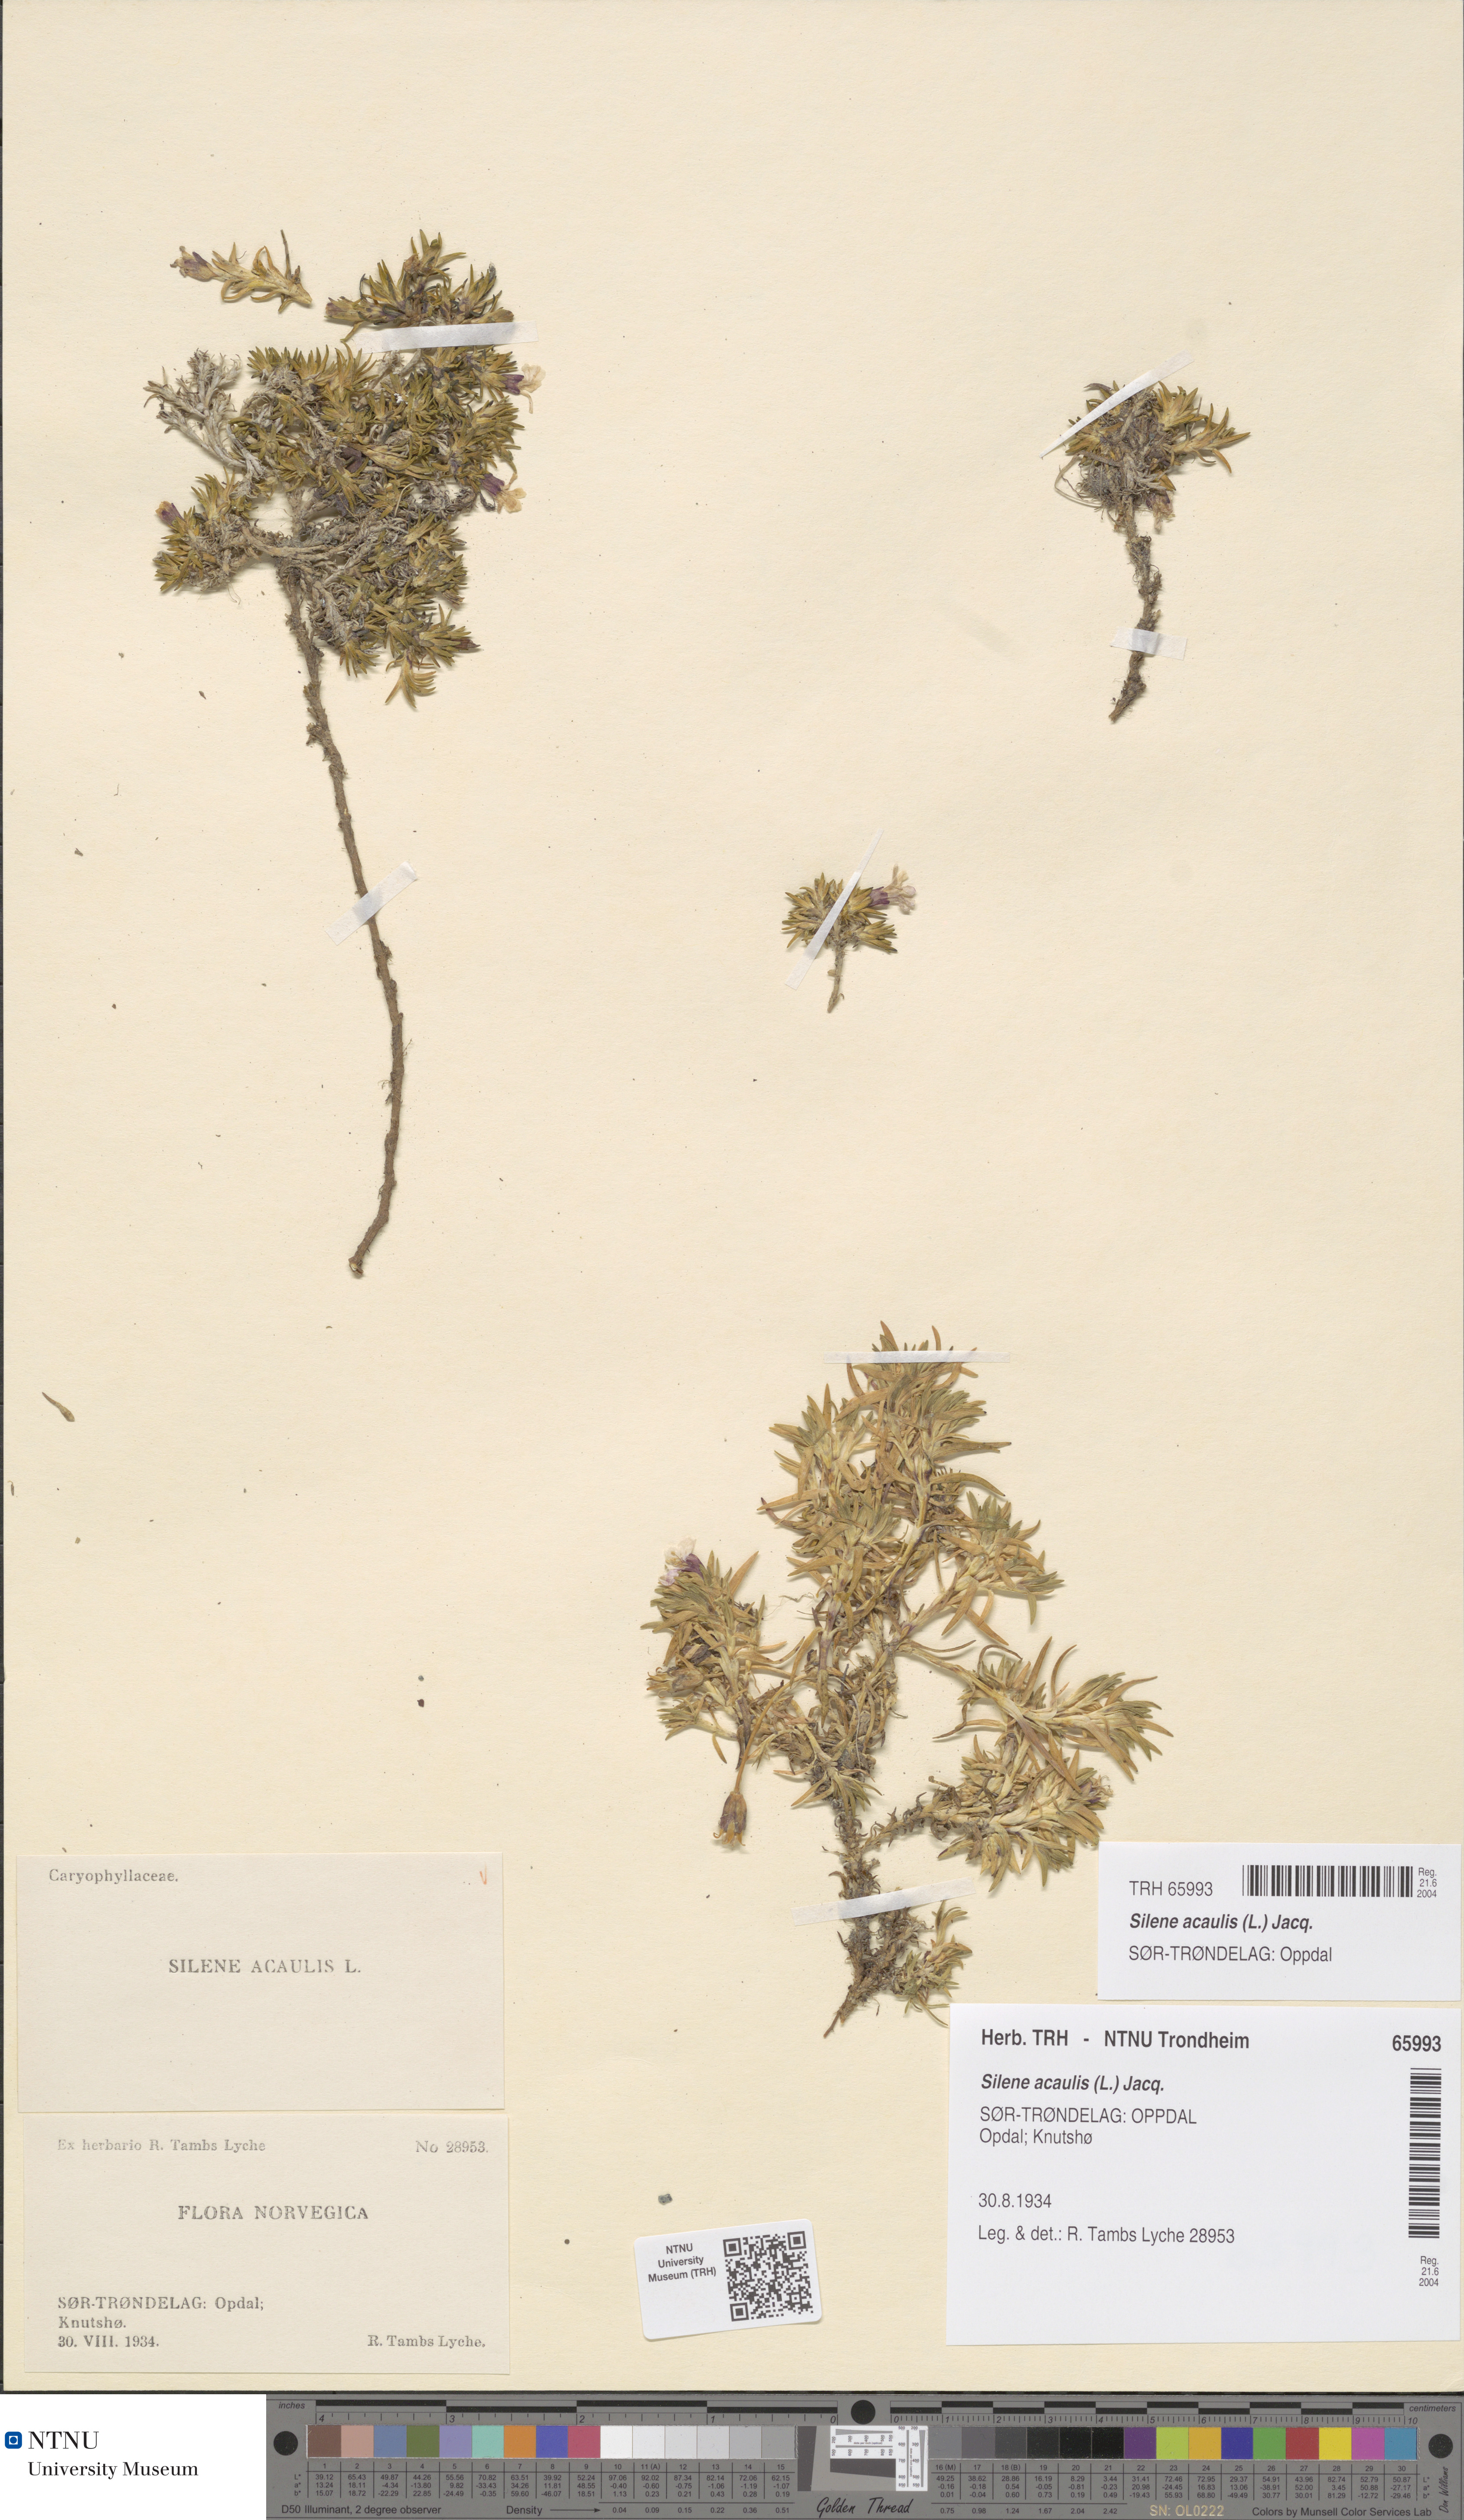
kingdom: Plantae
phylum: Tracheophyta
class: Magnoliopsida
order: Caryophyllales
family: Caryophyllaceae
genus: Silene
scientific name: Silene acaulis
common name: Moss campion
